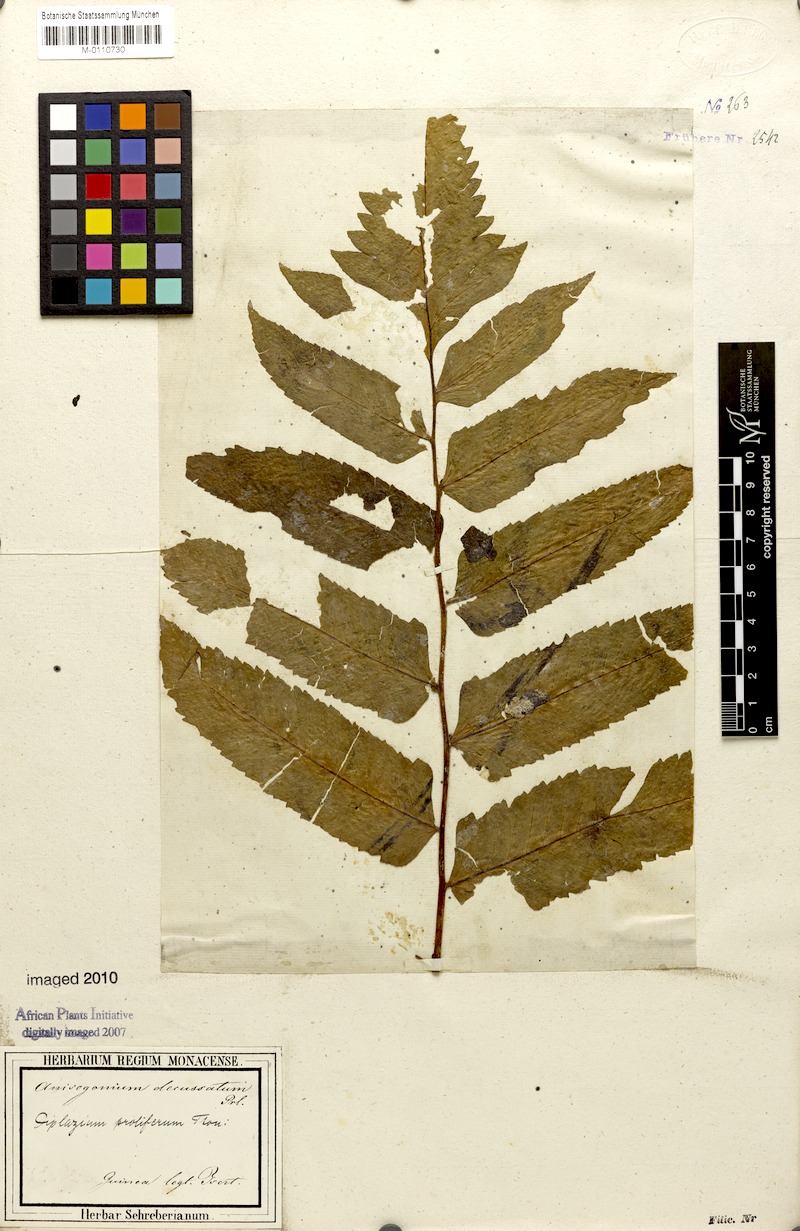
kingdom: Plantae
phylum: Tracheophyta
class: Polypodiopsida
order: Polypodiales
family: Athyriaceae
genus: Diplazium
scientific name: Diplazium proliferum
